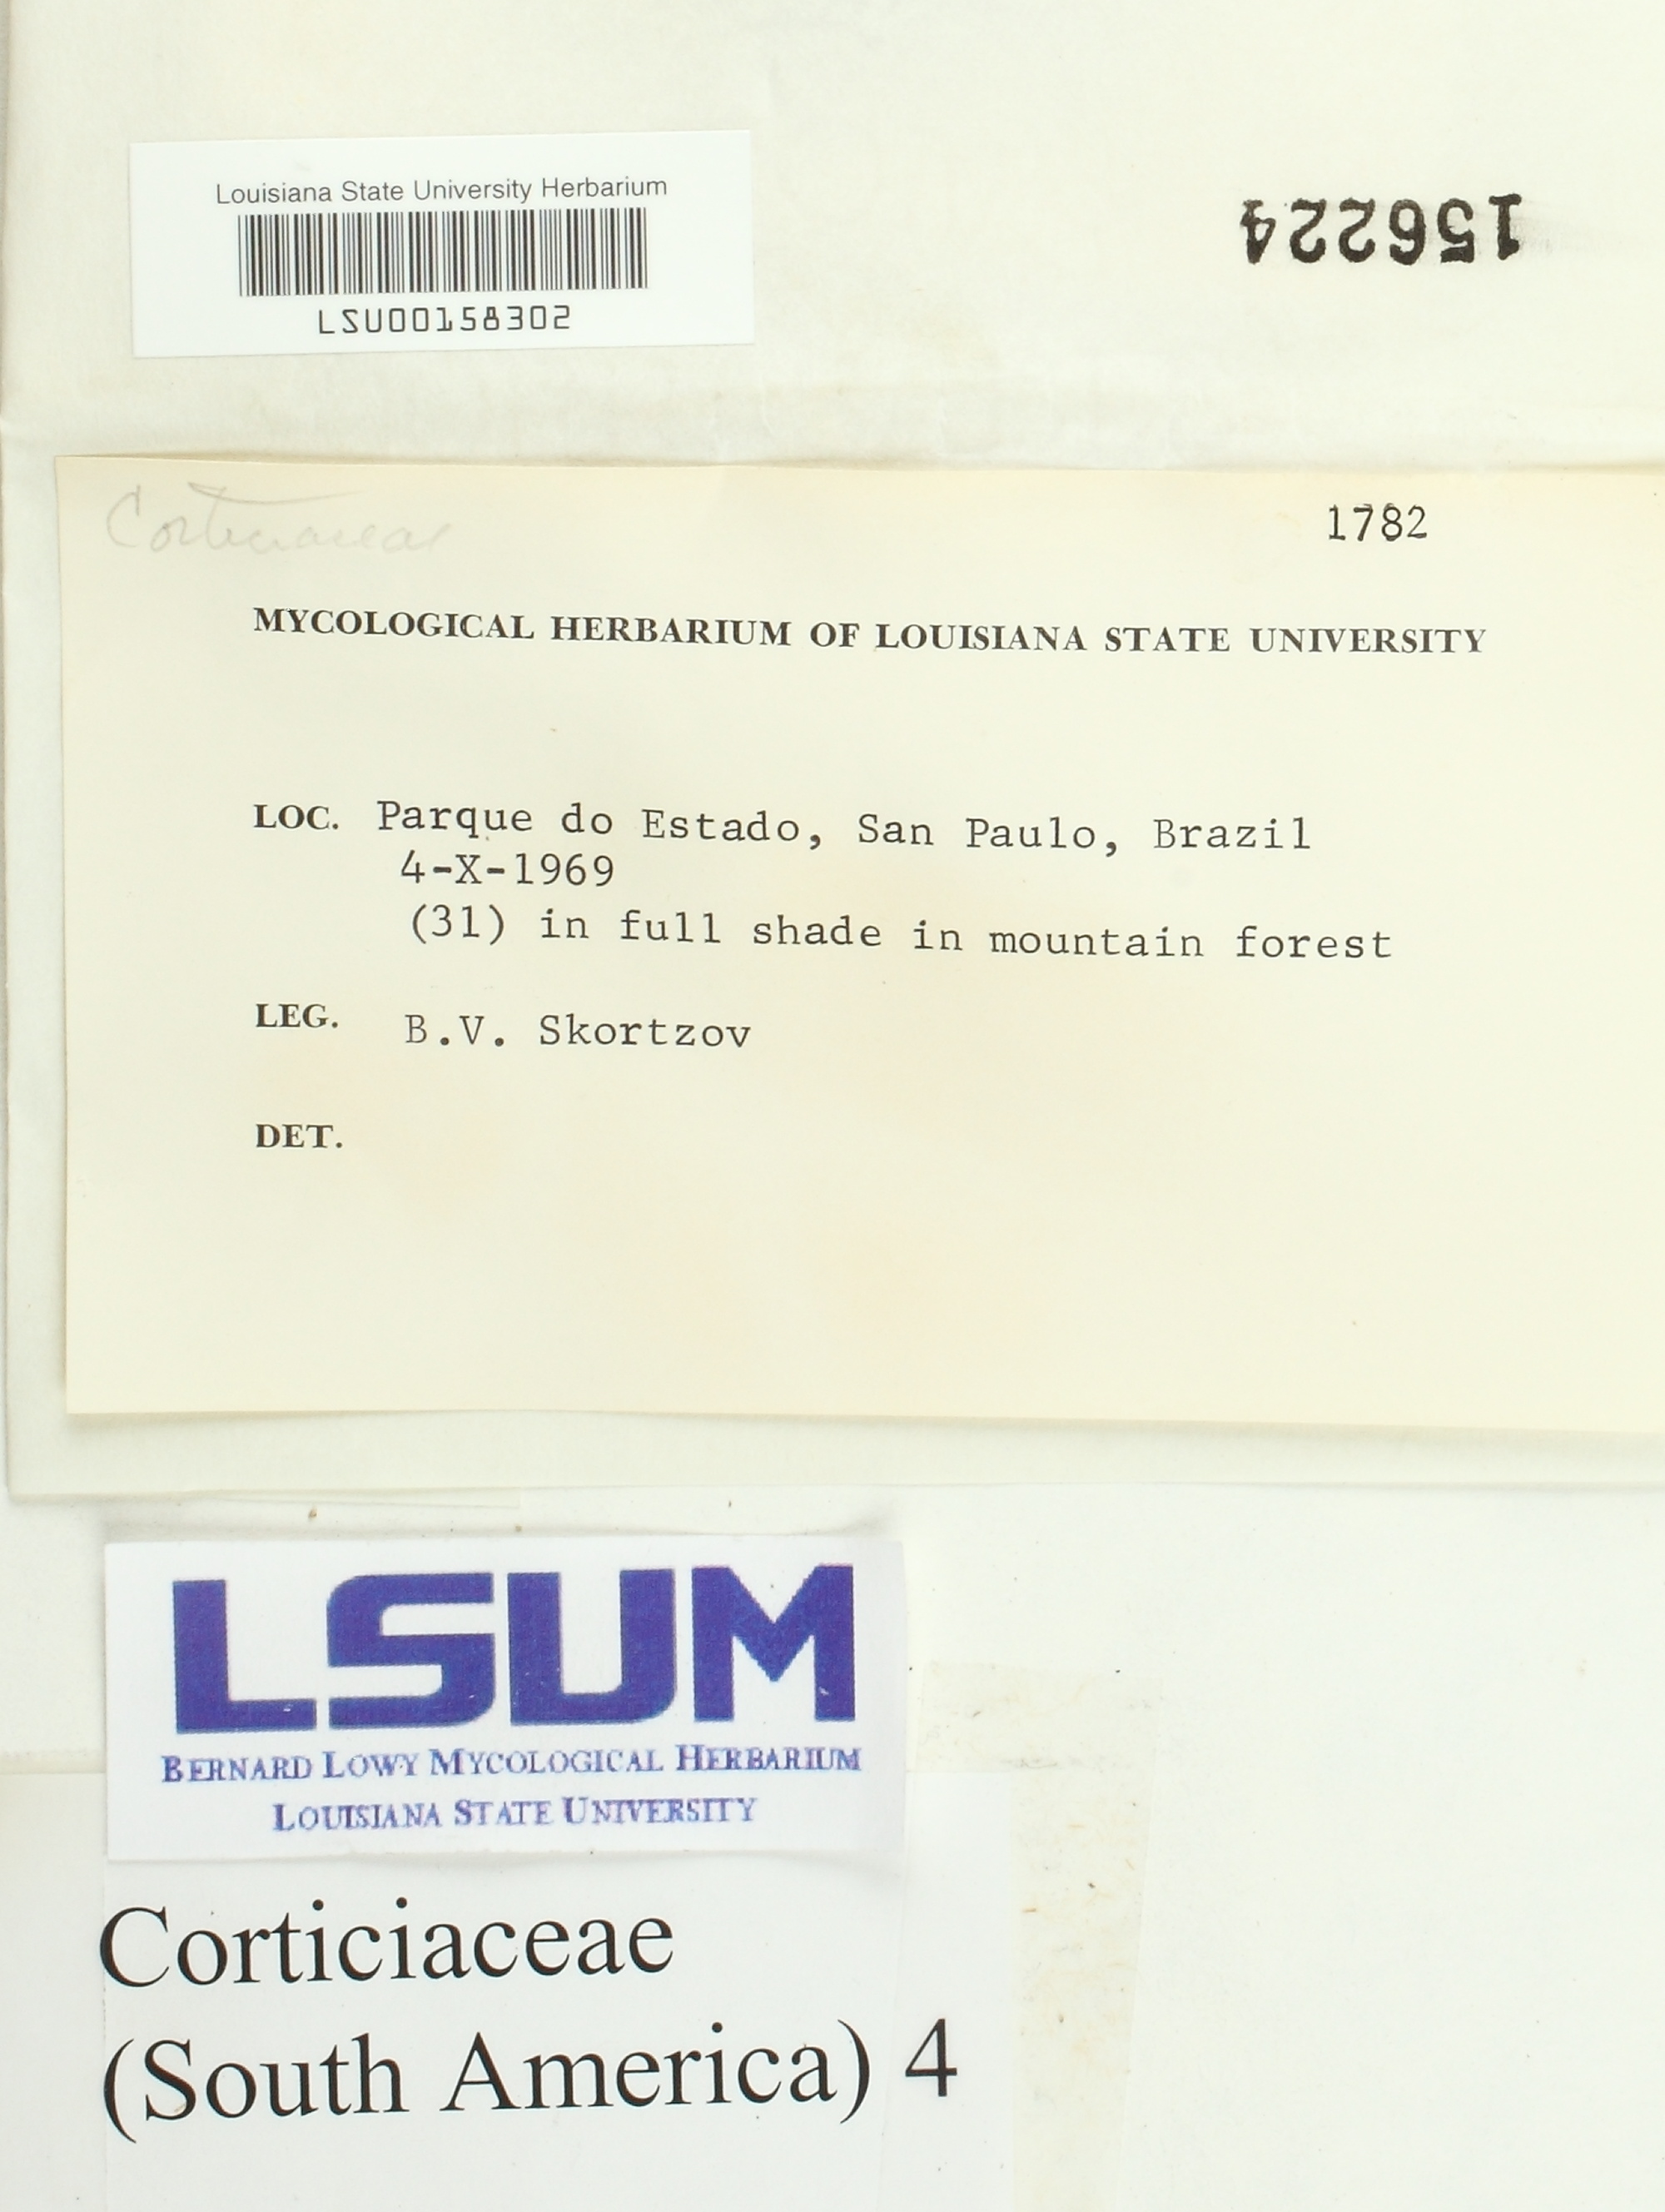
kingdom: Fungi
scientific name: Fungi
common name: Fungi
